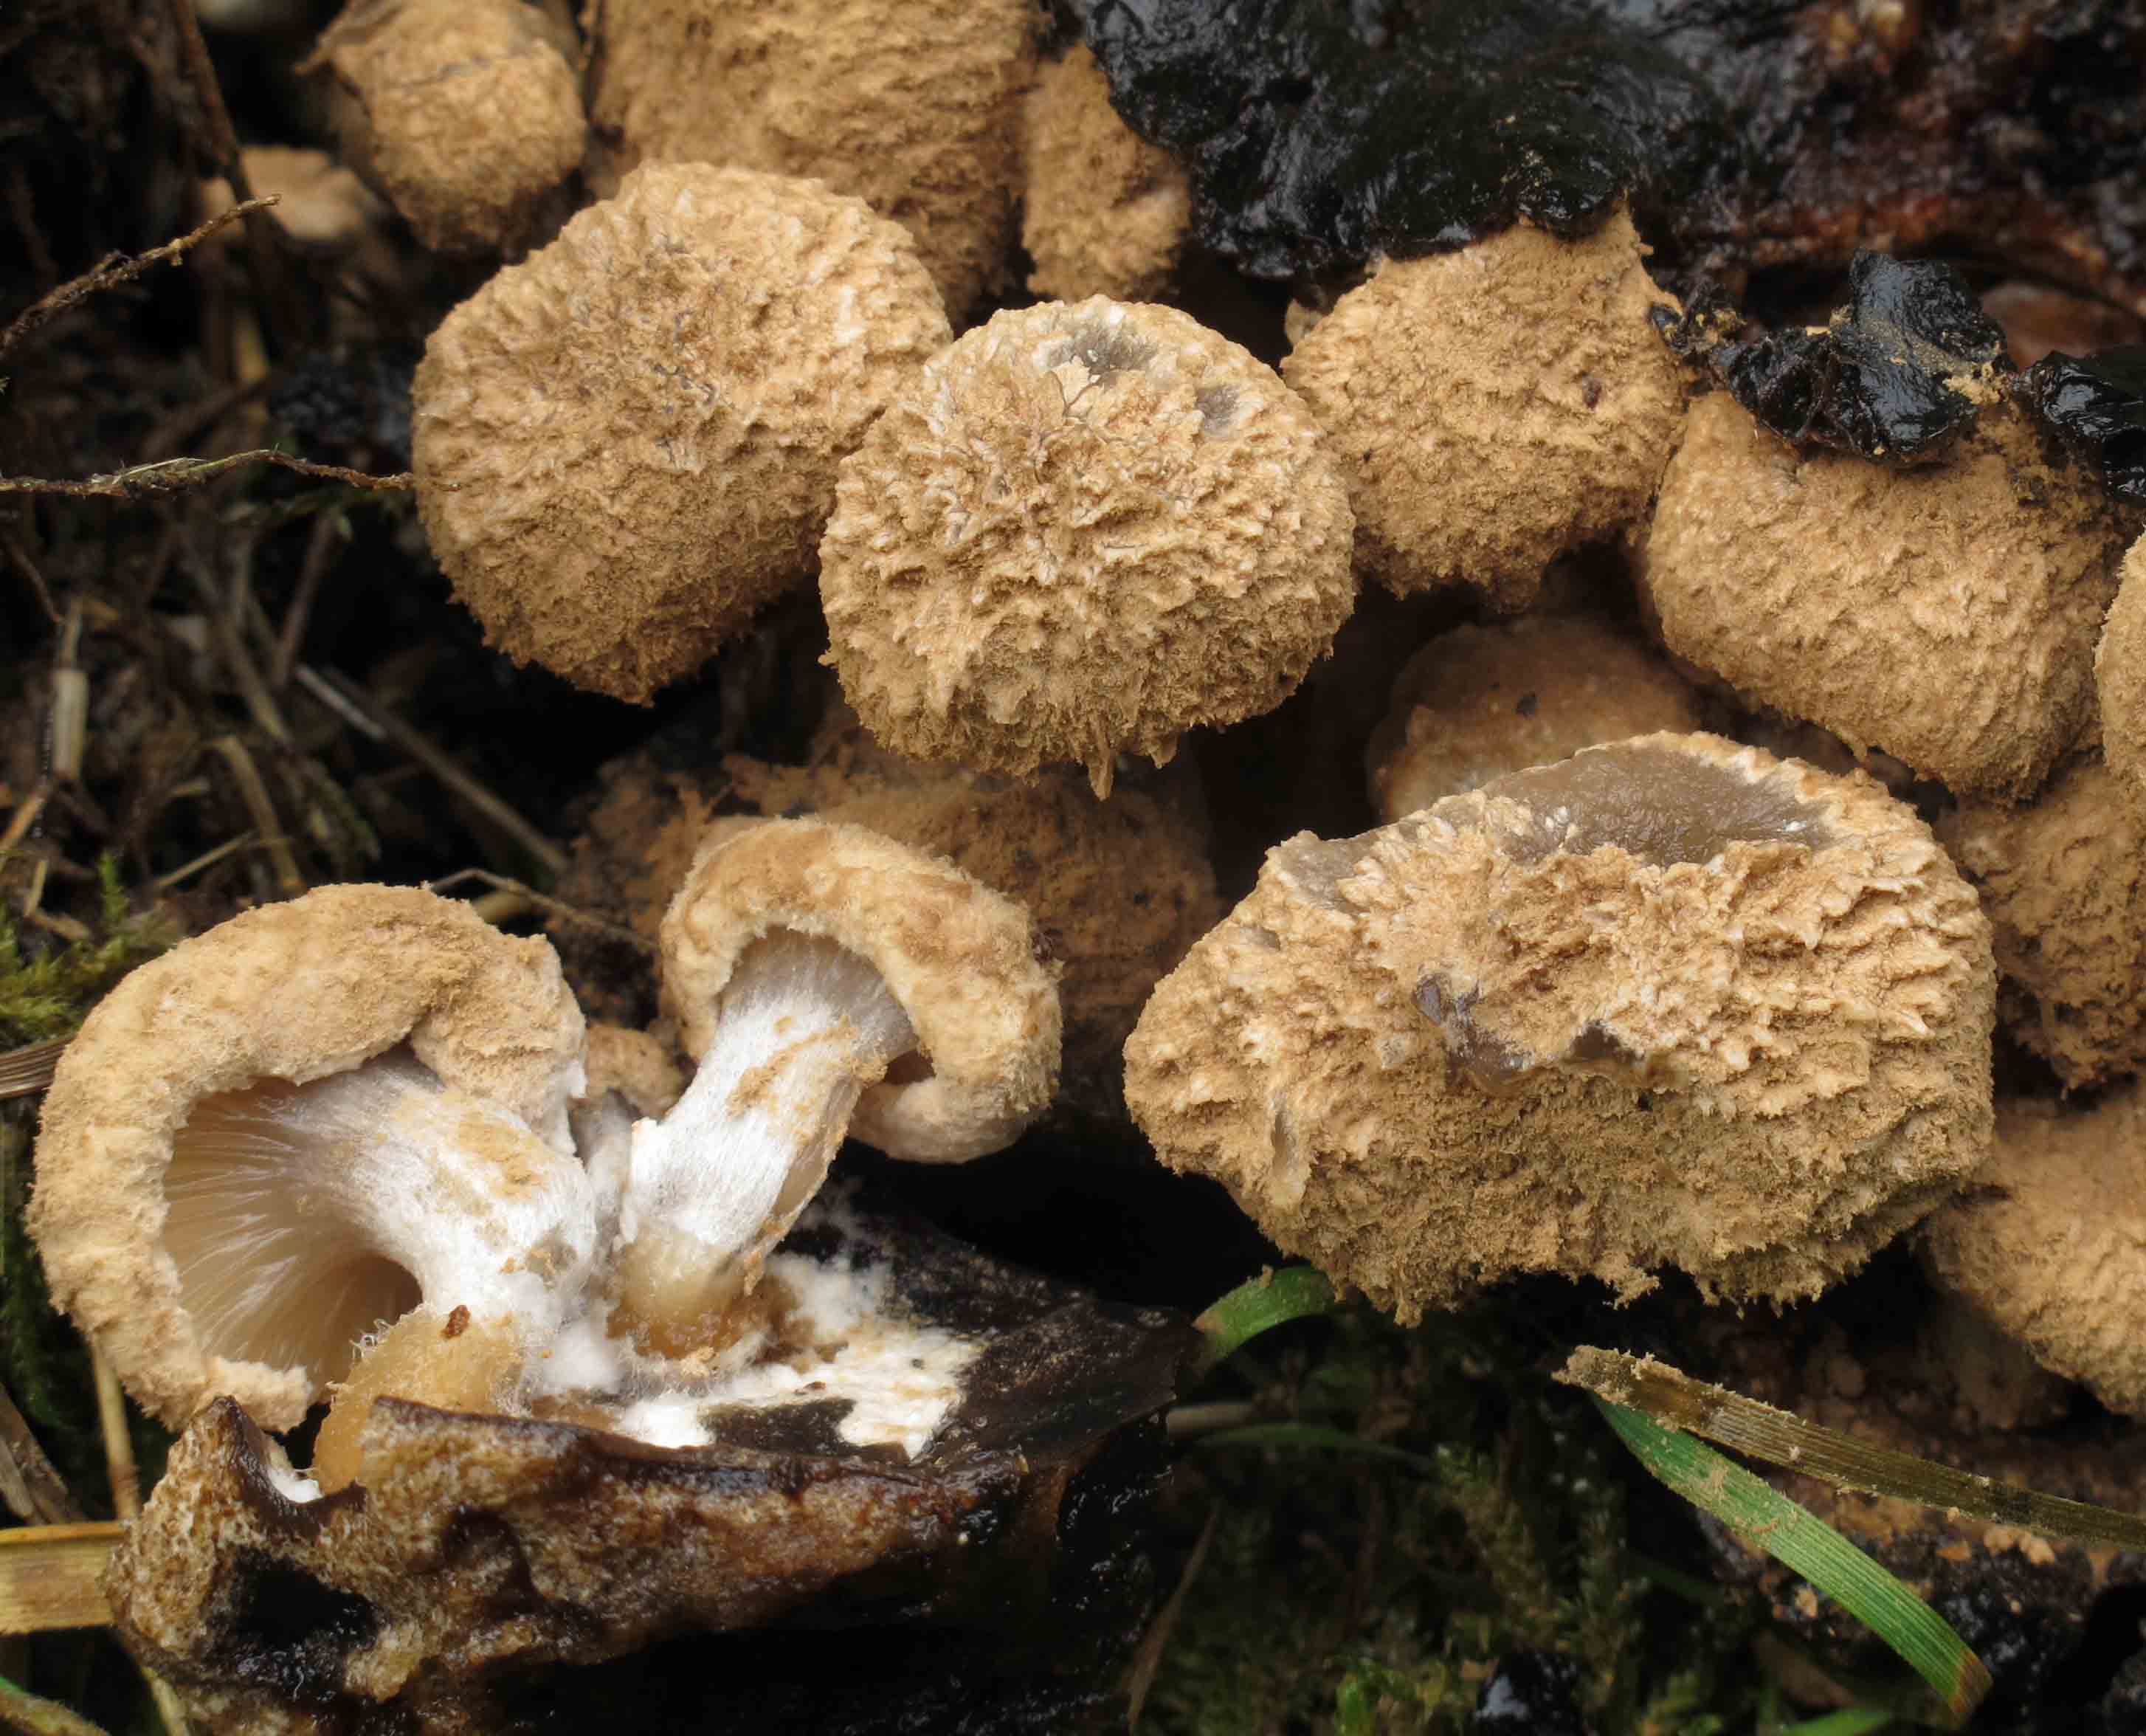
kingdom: Fungi
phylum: Basidiomycota
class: Agaricomycetes
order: Agaricales
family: Lyophyllaceae
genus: Asterophora
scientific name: Asterophora lycoperdoides
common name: brunpudret snyltehat
